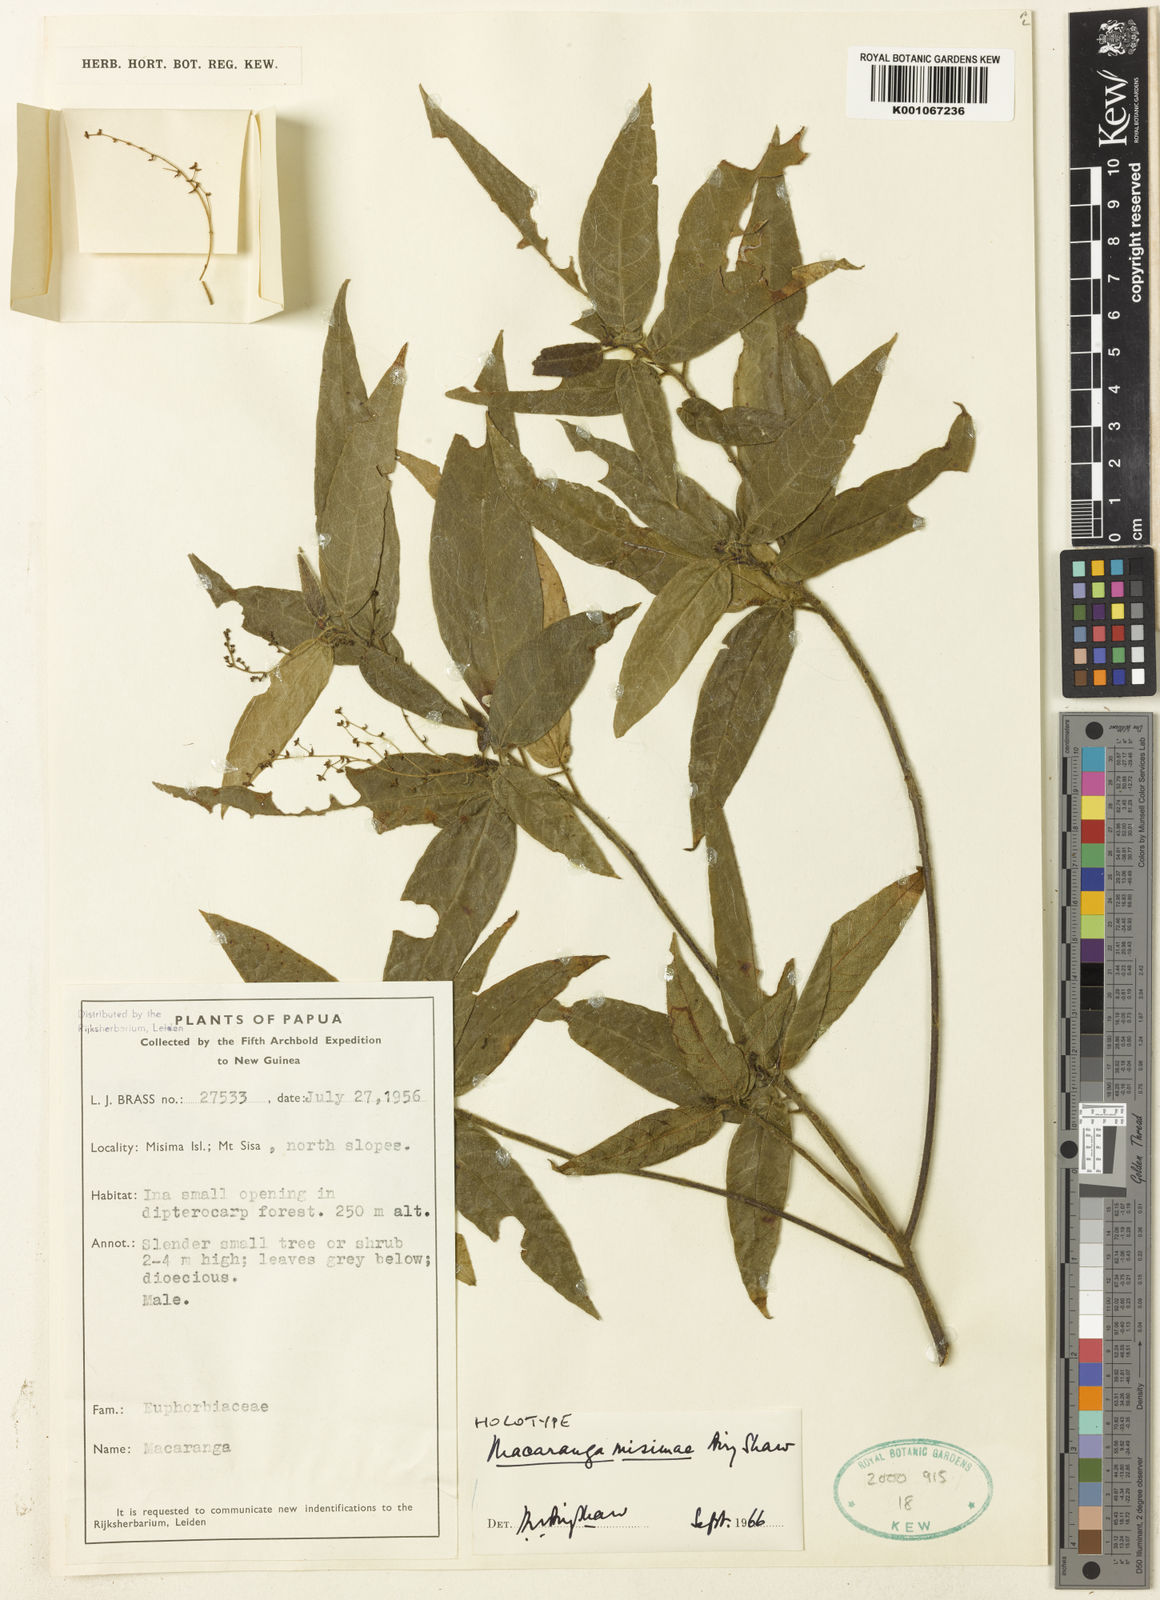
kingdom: Plantae
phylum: Tracheophyta
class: Magnoliopsida
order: Malpighiales
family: Euphorbiaceae
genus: Macaranga
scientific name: Macaranga misimae
